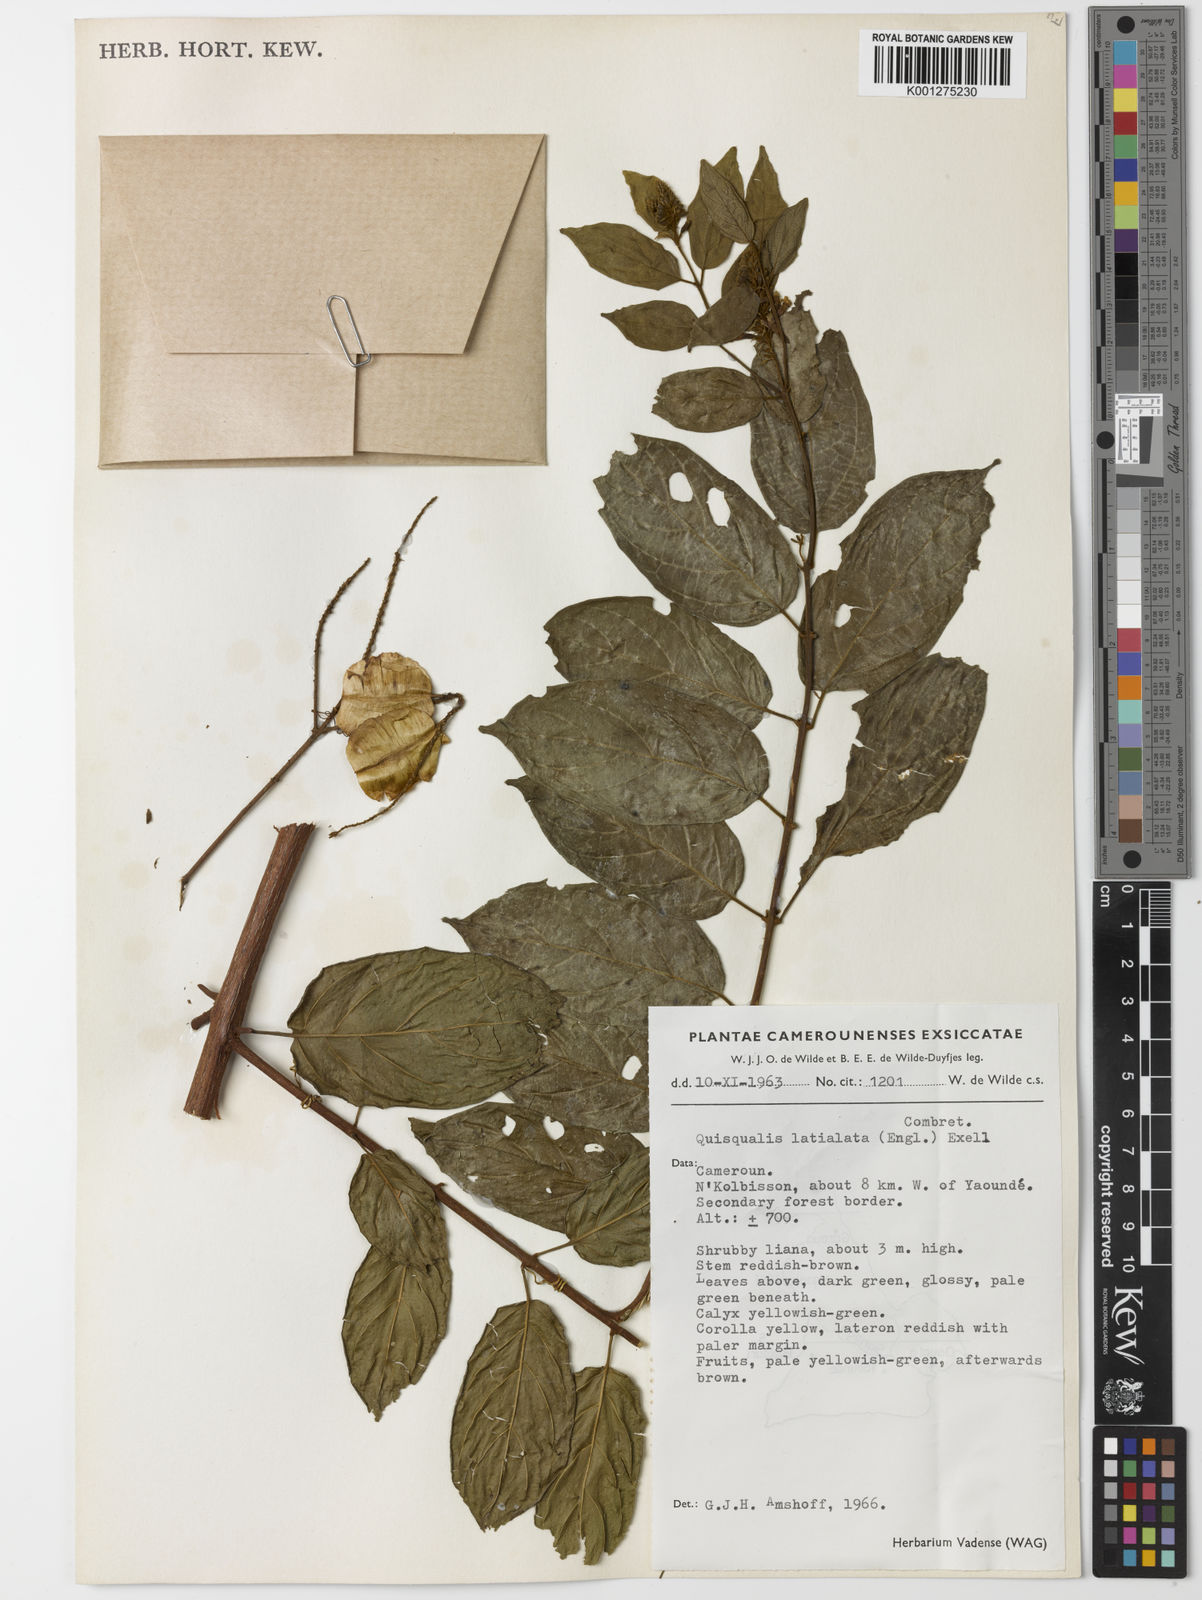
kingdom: Plantae
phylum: Tracheophyta
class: Magnoliopsida
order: Myrtales
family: Combretaceae
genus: Combretum
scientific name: Combretum latialatum
